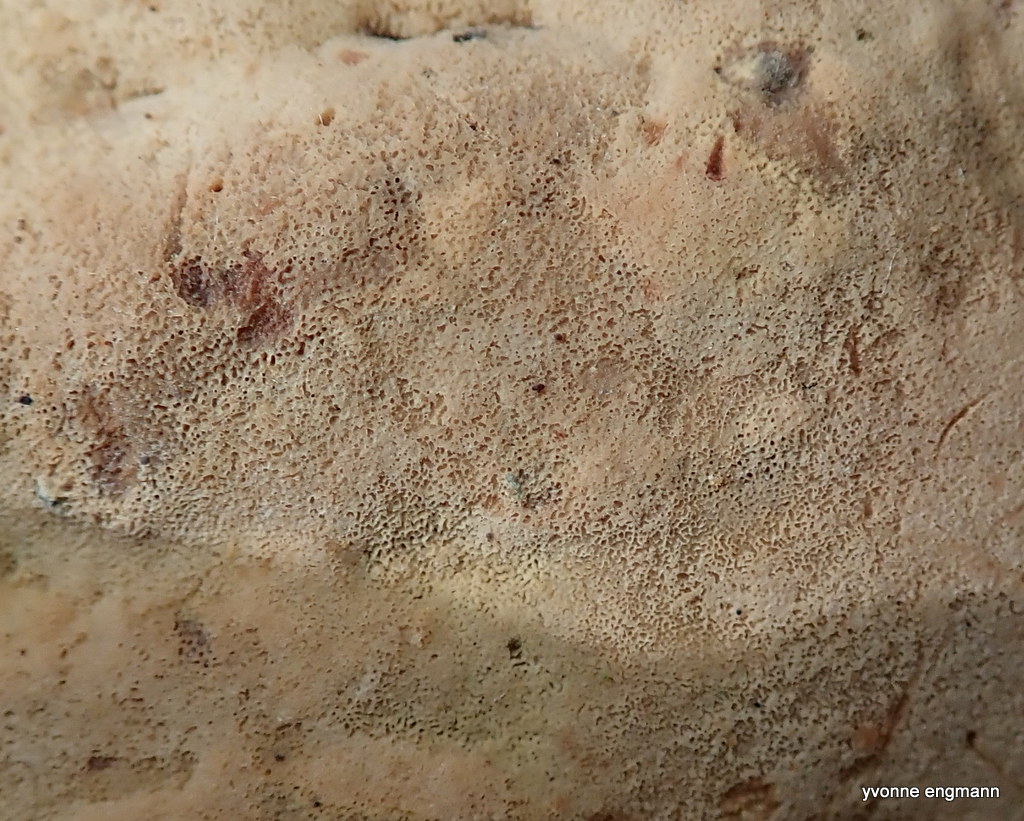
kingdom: Fungi
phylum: Basidiomycota
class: Agaricomycetes
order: Polyporales
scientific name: Polyporales
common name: poresvampordenen
